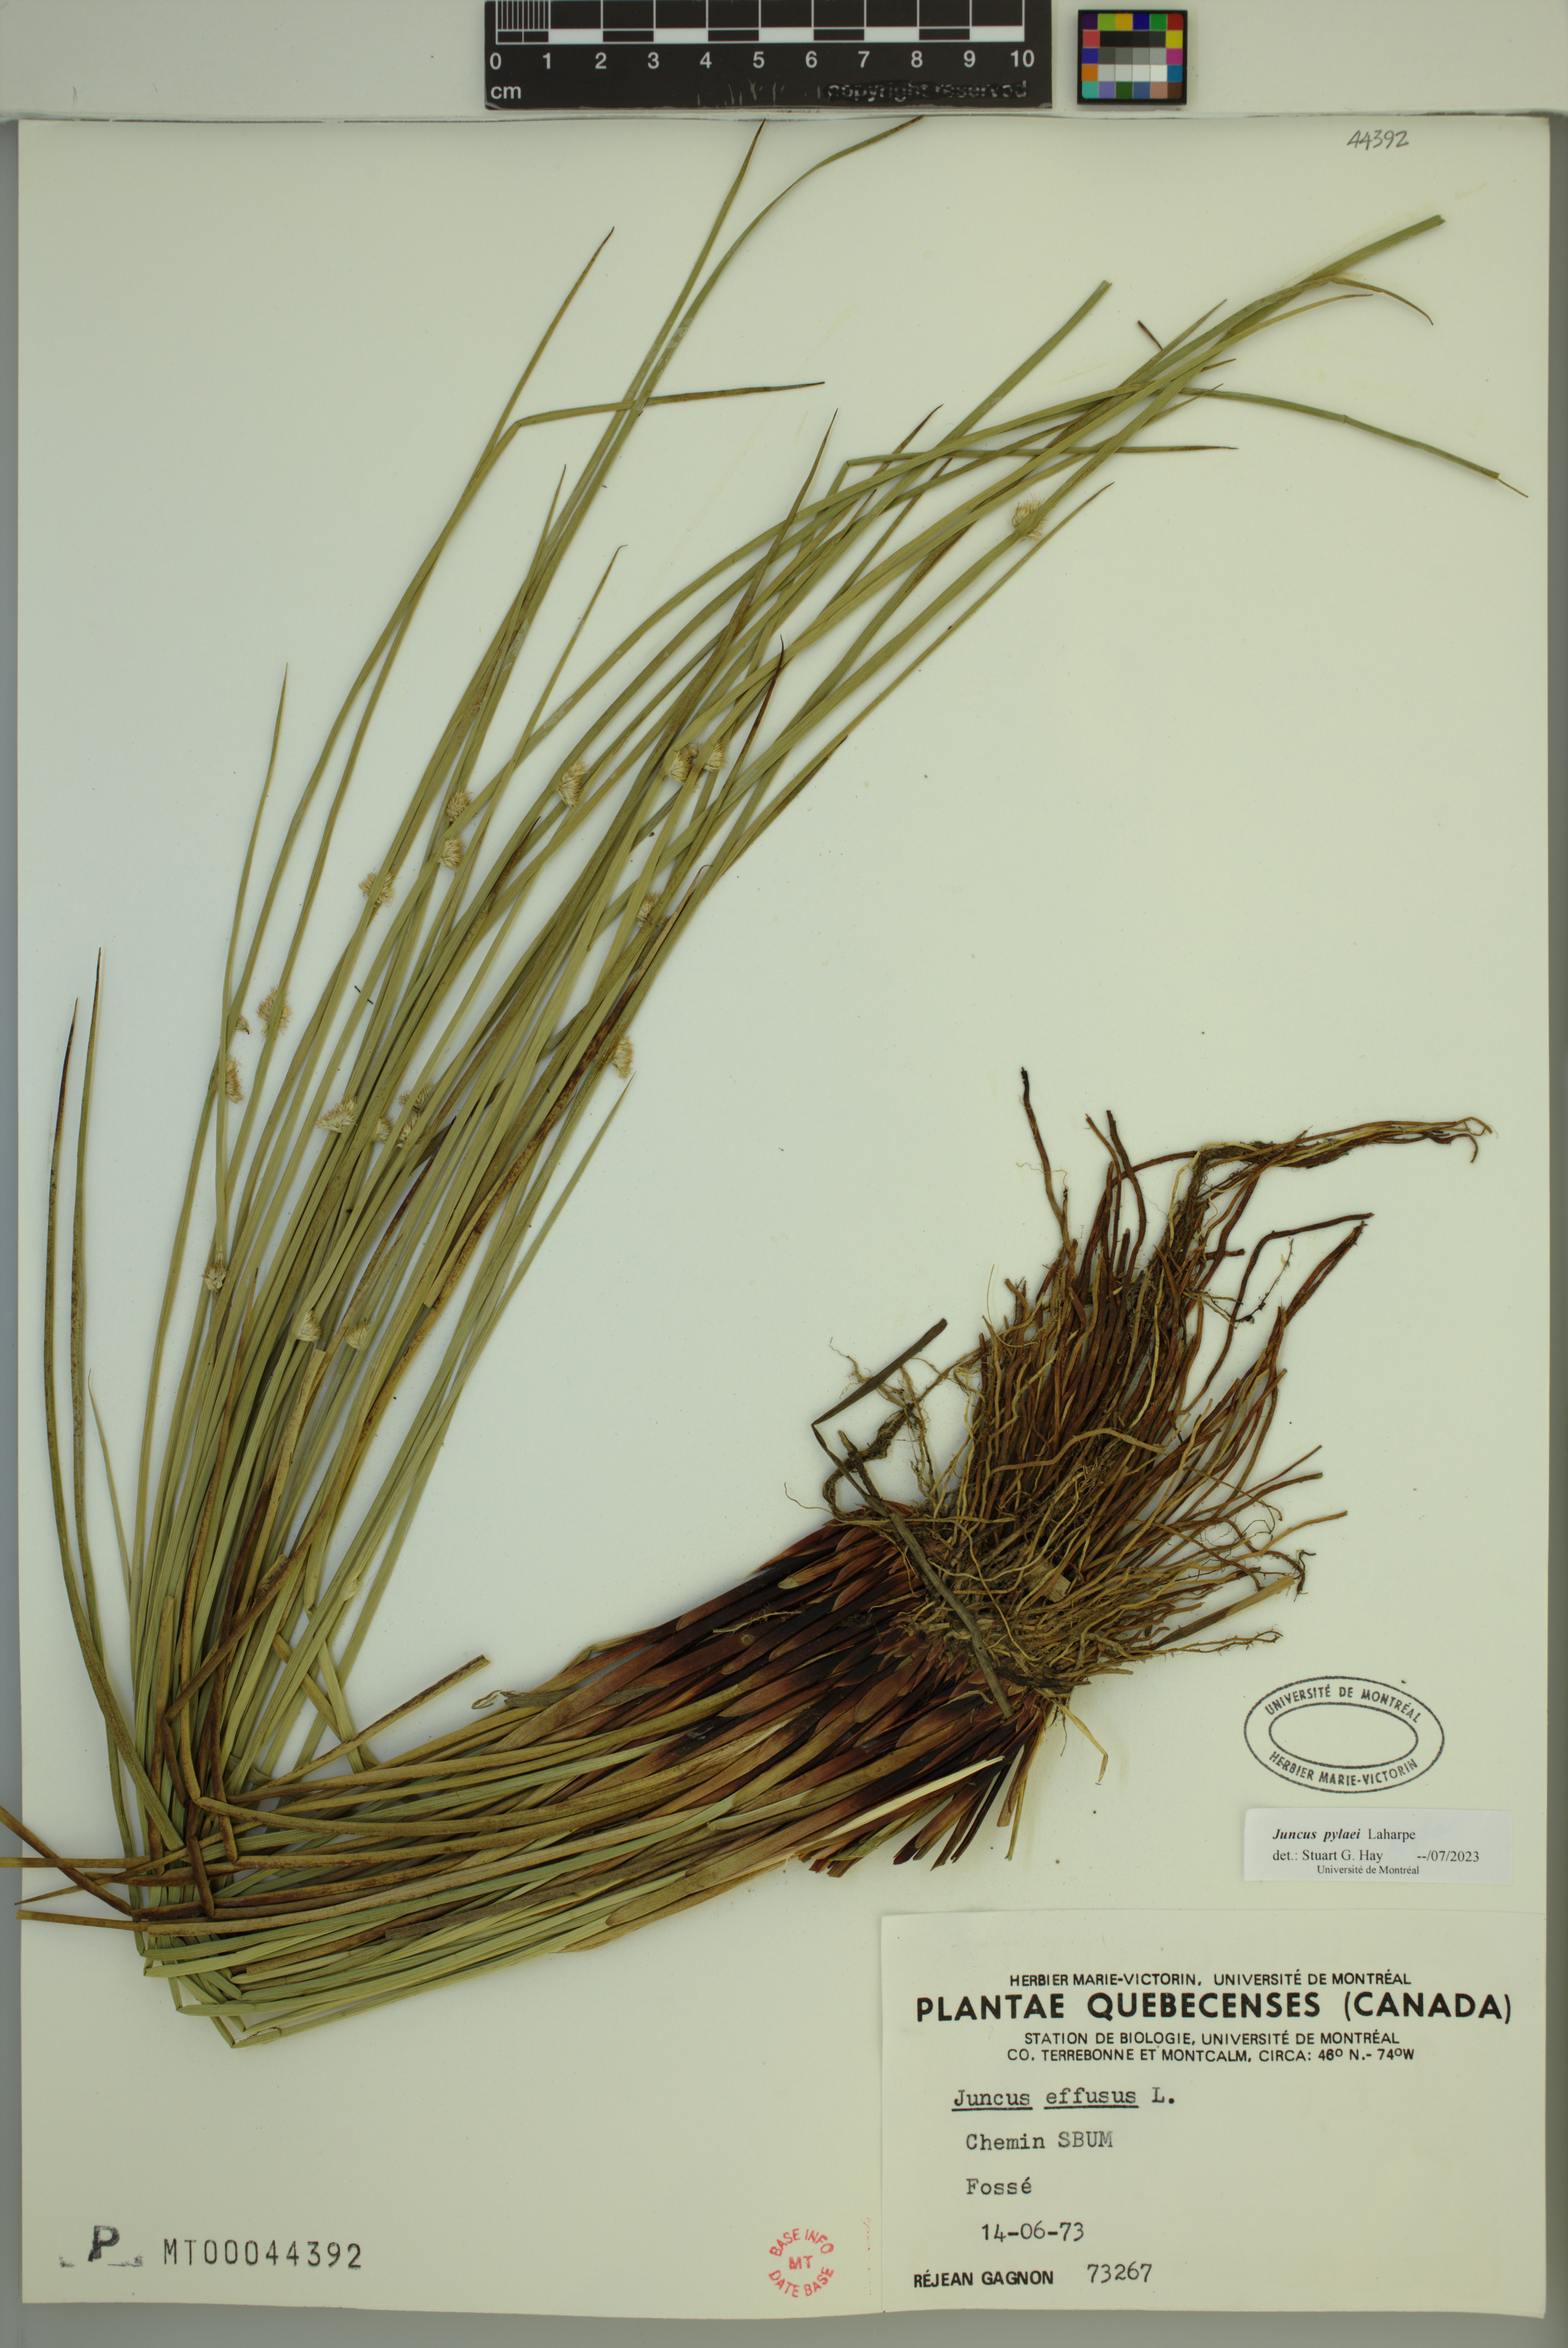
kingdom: Plantae
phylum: Tracheophyta
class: Liliopsida
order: Poales
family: Juncaceae
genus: Juncus
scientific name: Juncus effusus
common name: Soft rush
